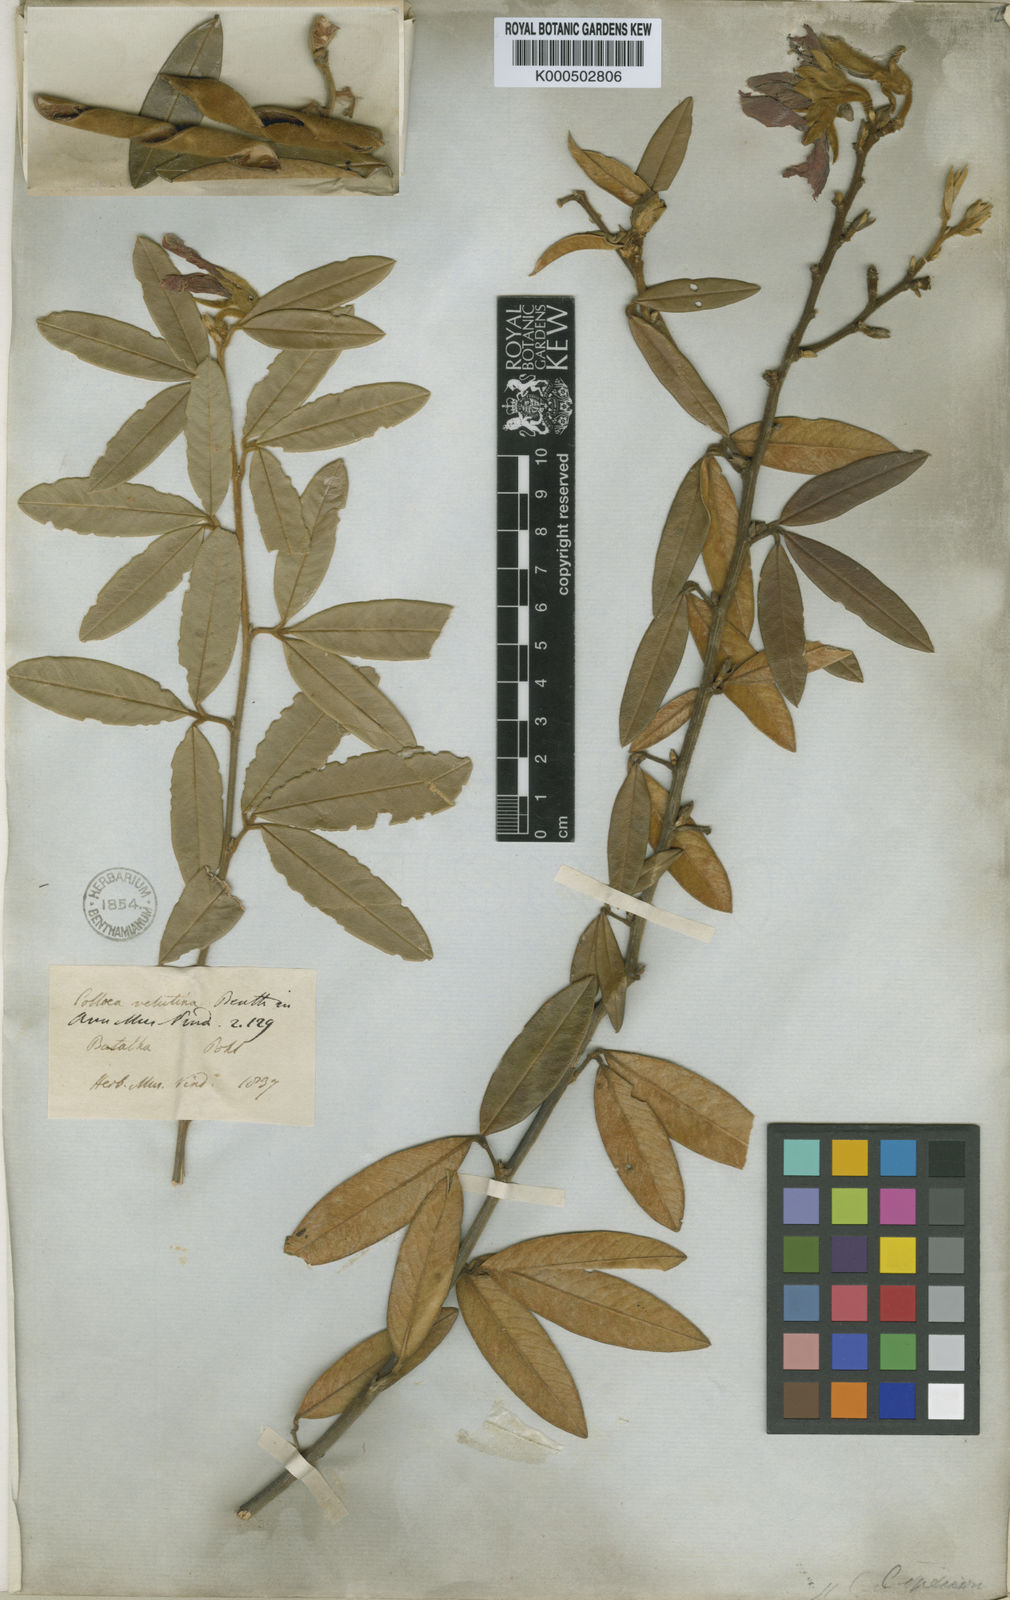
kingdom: Plantae
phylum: Tracheophyta
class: Magnoliopsida
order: Fabales
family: Fabaceae
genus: Collaea
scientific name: Collaea speciosa
